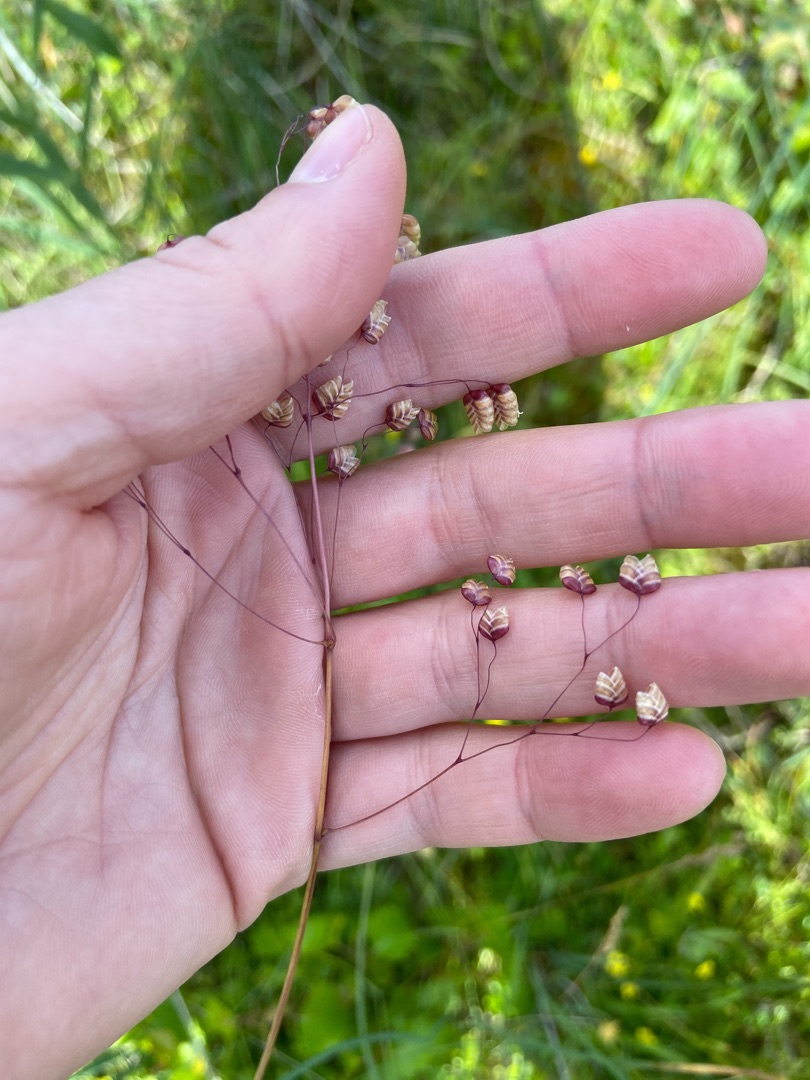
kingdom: Plantae
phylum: Tracheophyta
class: Liliopsida
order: Poales
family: Poaceae
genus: Briza
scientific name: Briza
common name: Hjertegræsslægten
